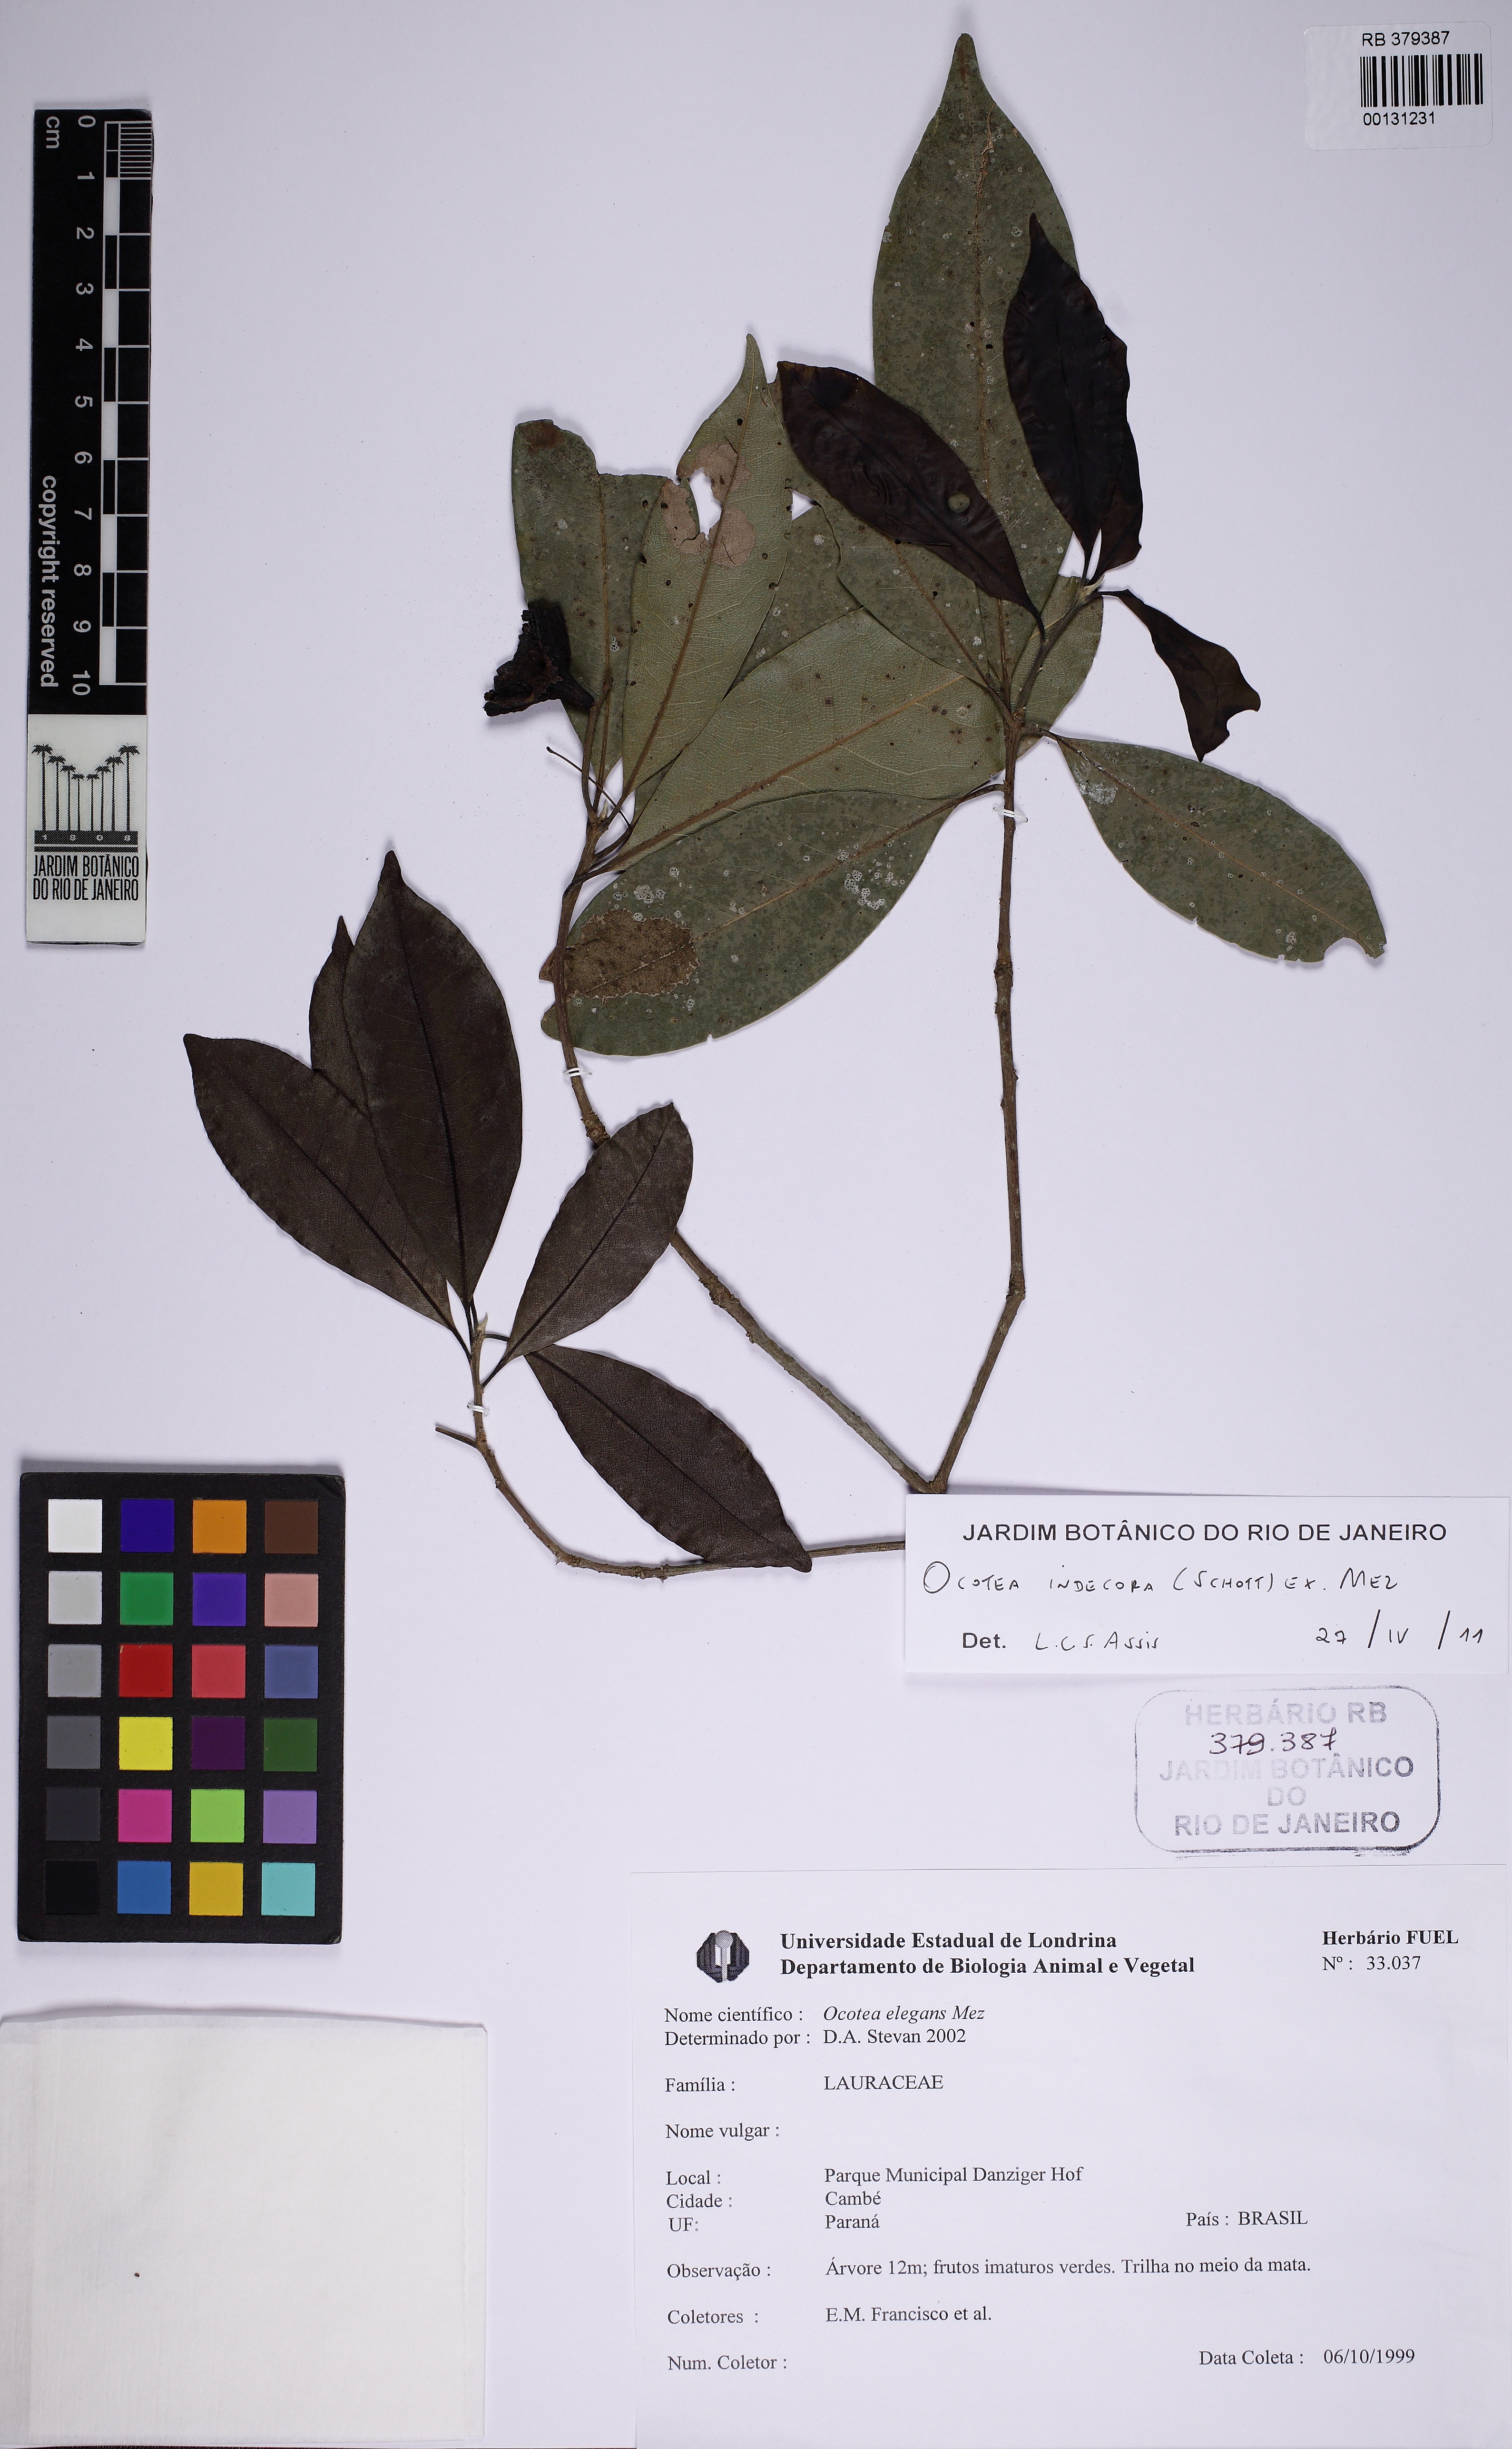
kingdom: Plantae
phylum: Tracheophyta
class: Magnoliopsida
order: Laurales
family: Lauraceae
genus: Mespilodaphne
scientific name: Mespilodaphne indecora
